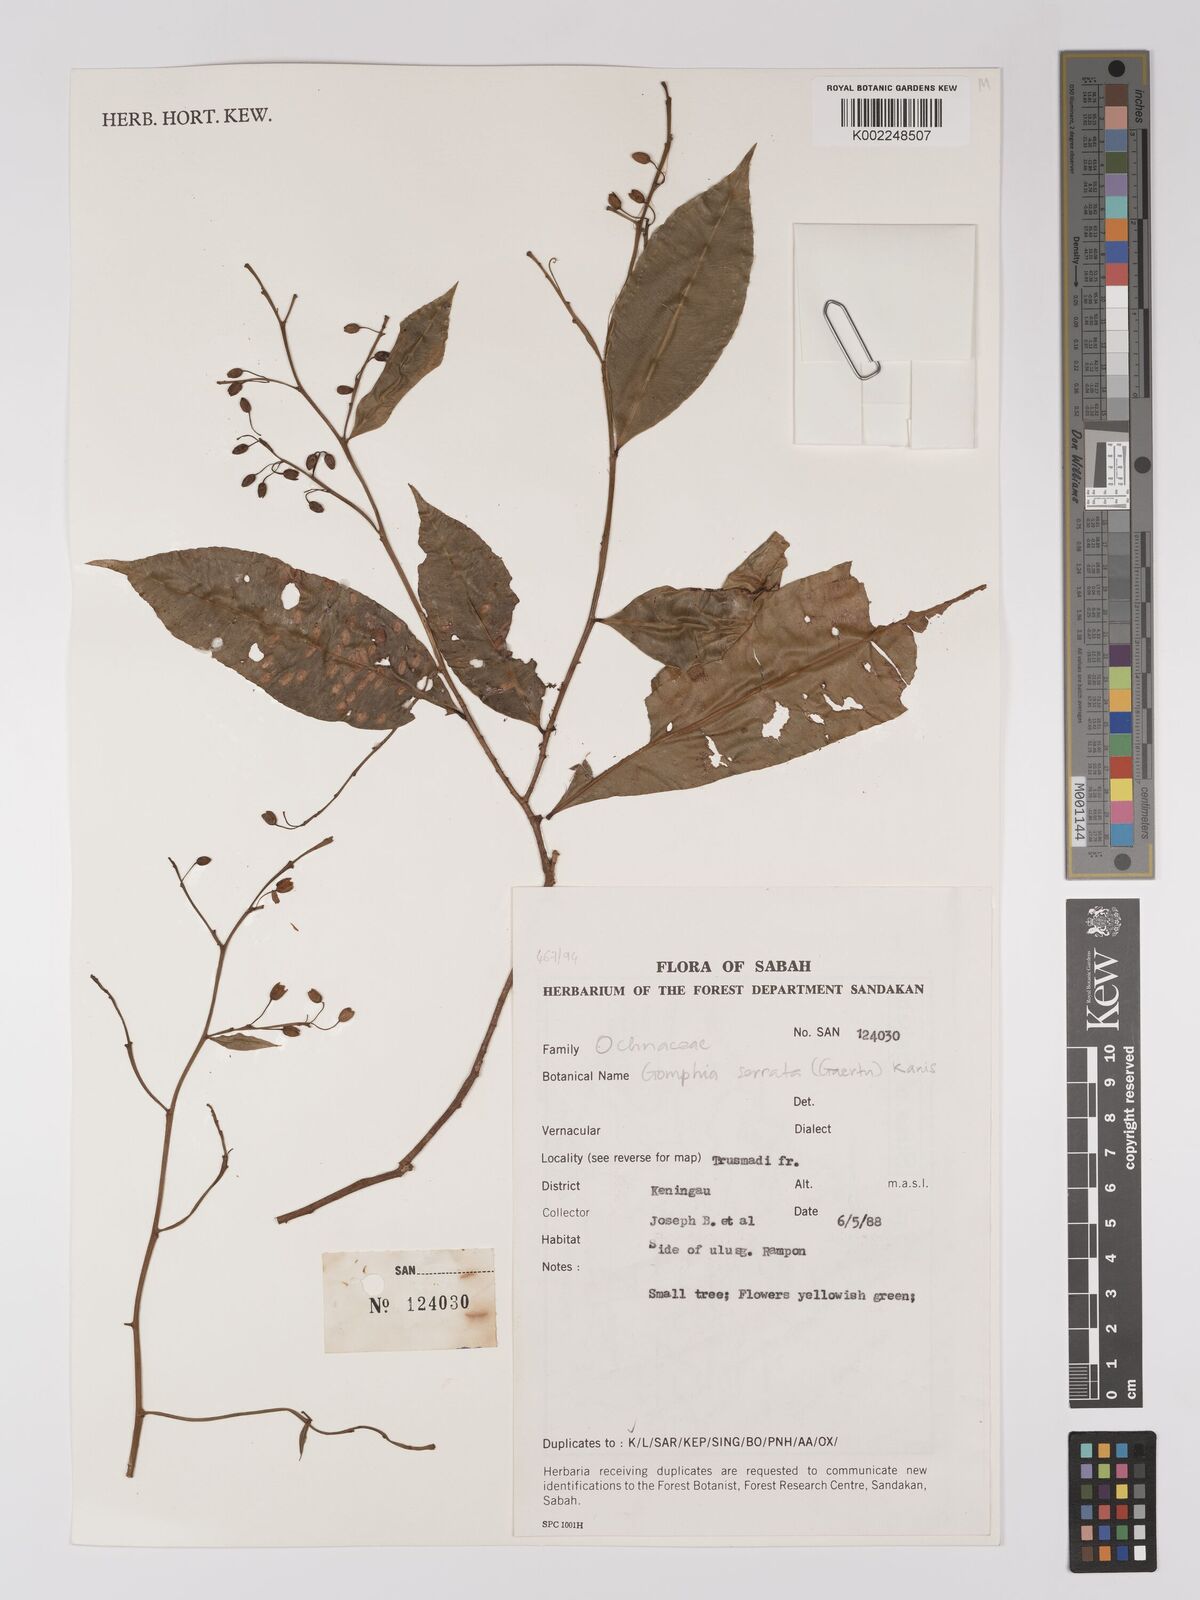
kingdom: Plantae
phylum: Tracheophyta
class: Magnoliopsida
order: Malpighiales
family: Ochnaceae
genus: Gomphia
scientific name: Gomphia serrata
